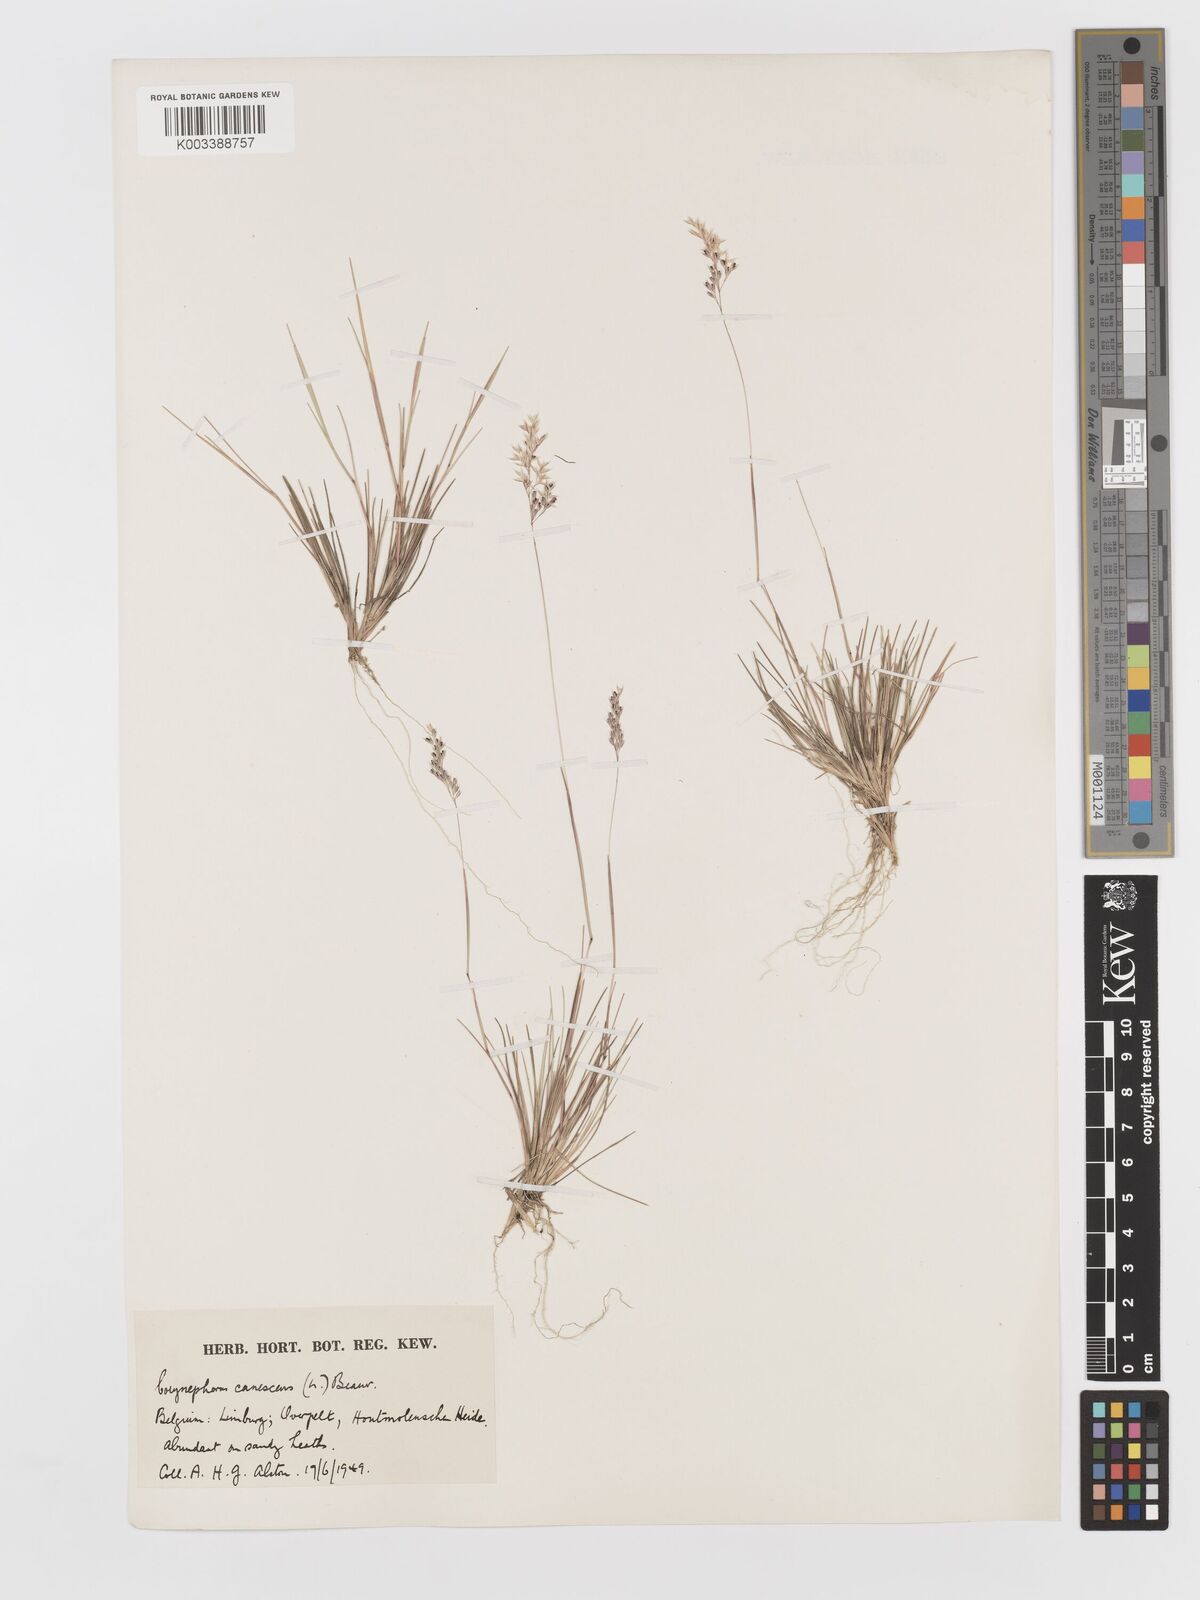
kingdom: Plantae
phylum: Tracheophyta
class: Liliopsida
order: Poales
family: Poaceae
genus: Corynephorus
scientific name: Corynephorus canescens
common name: Grey hair-grass
